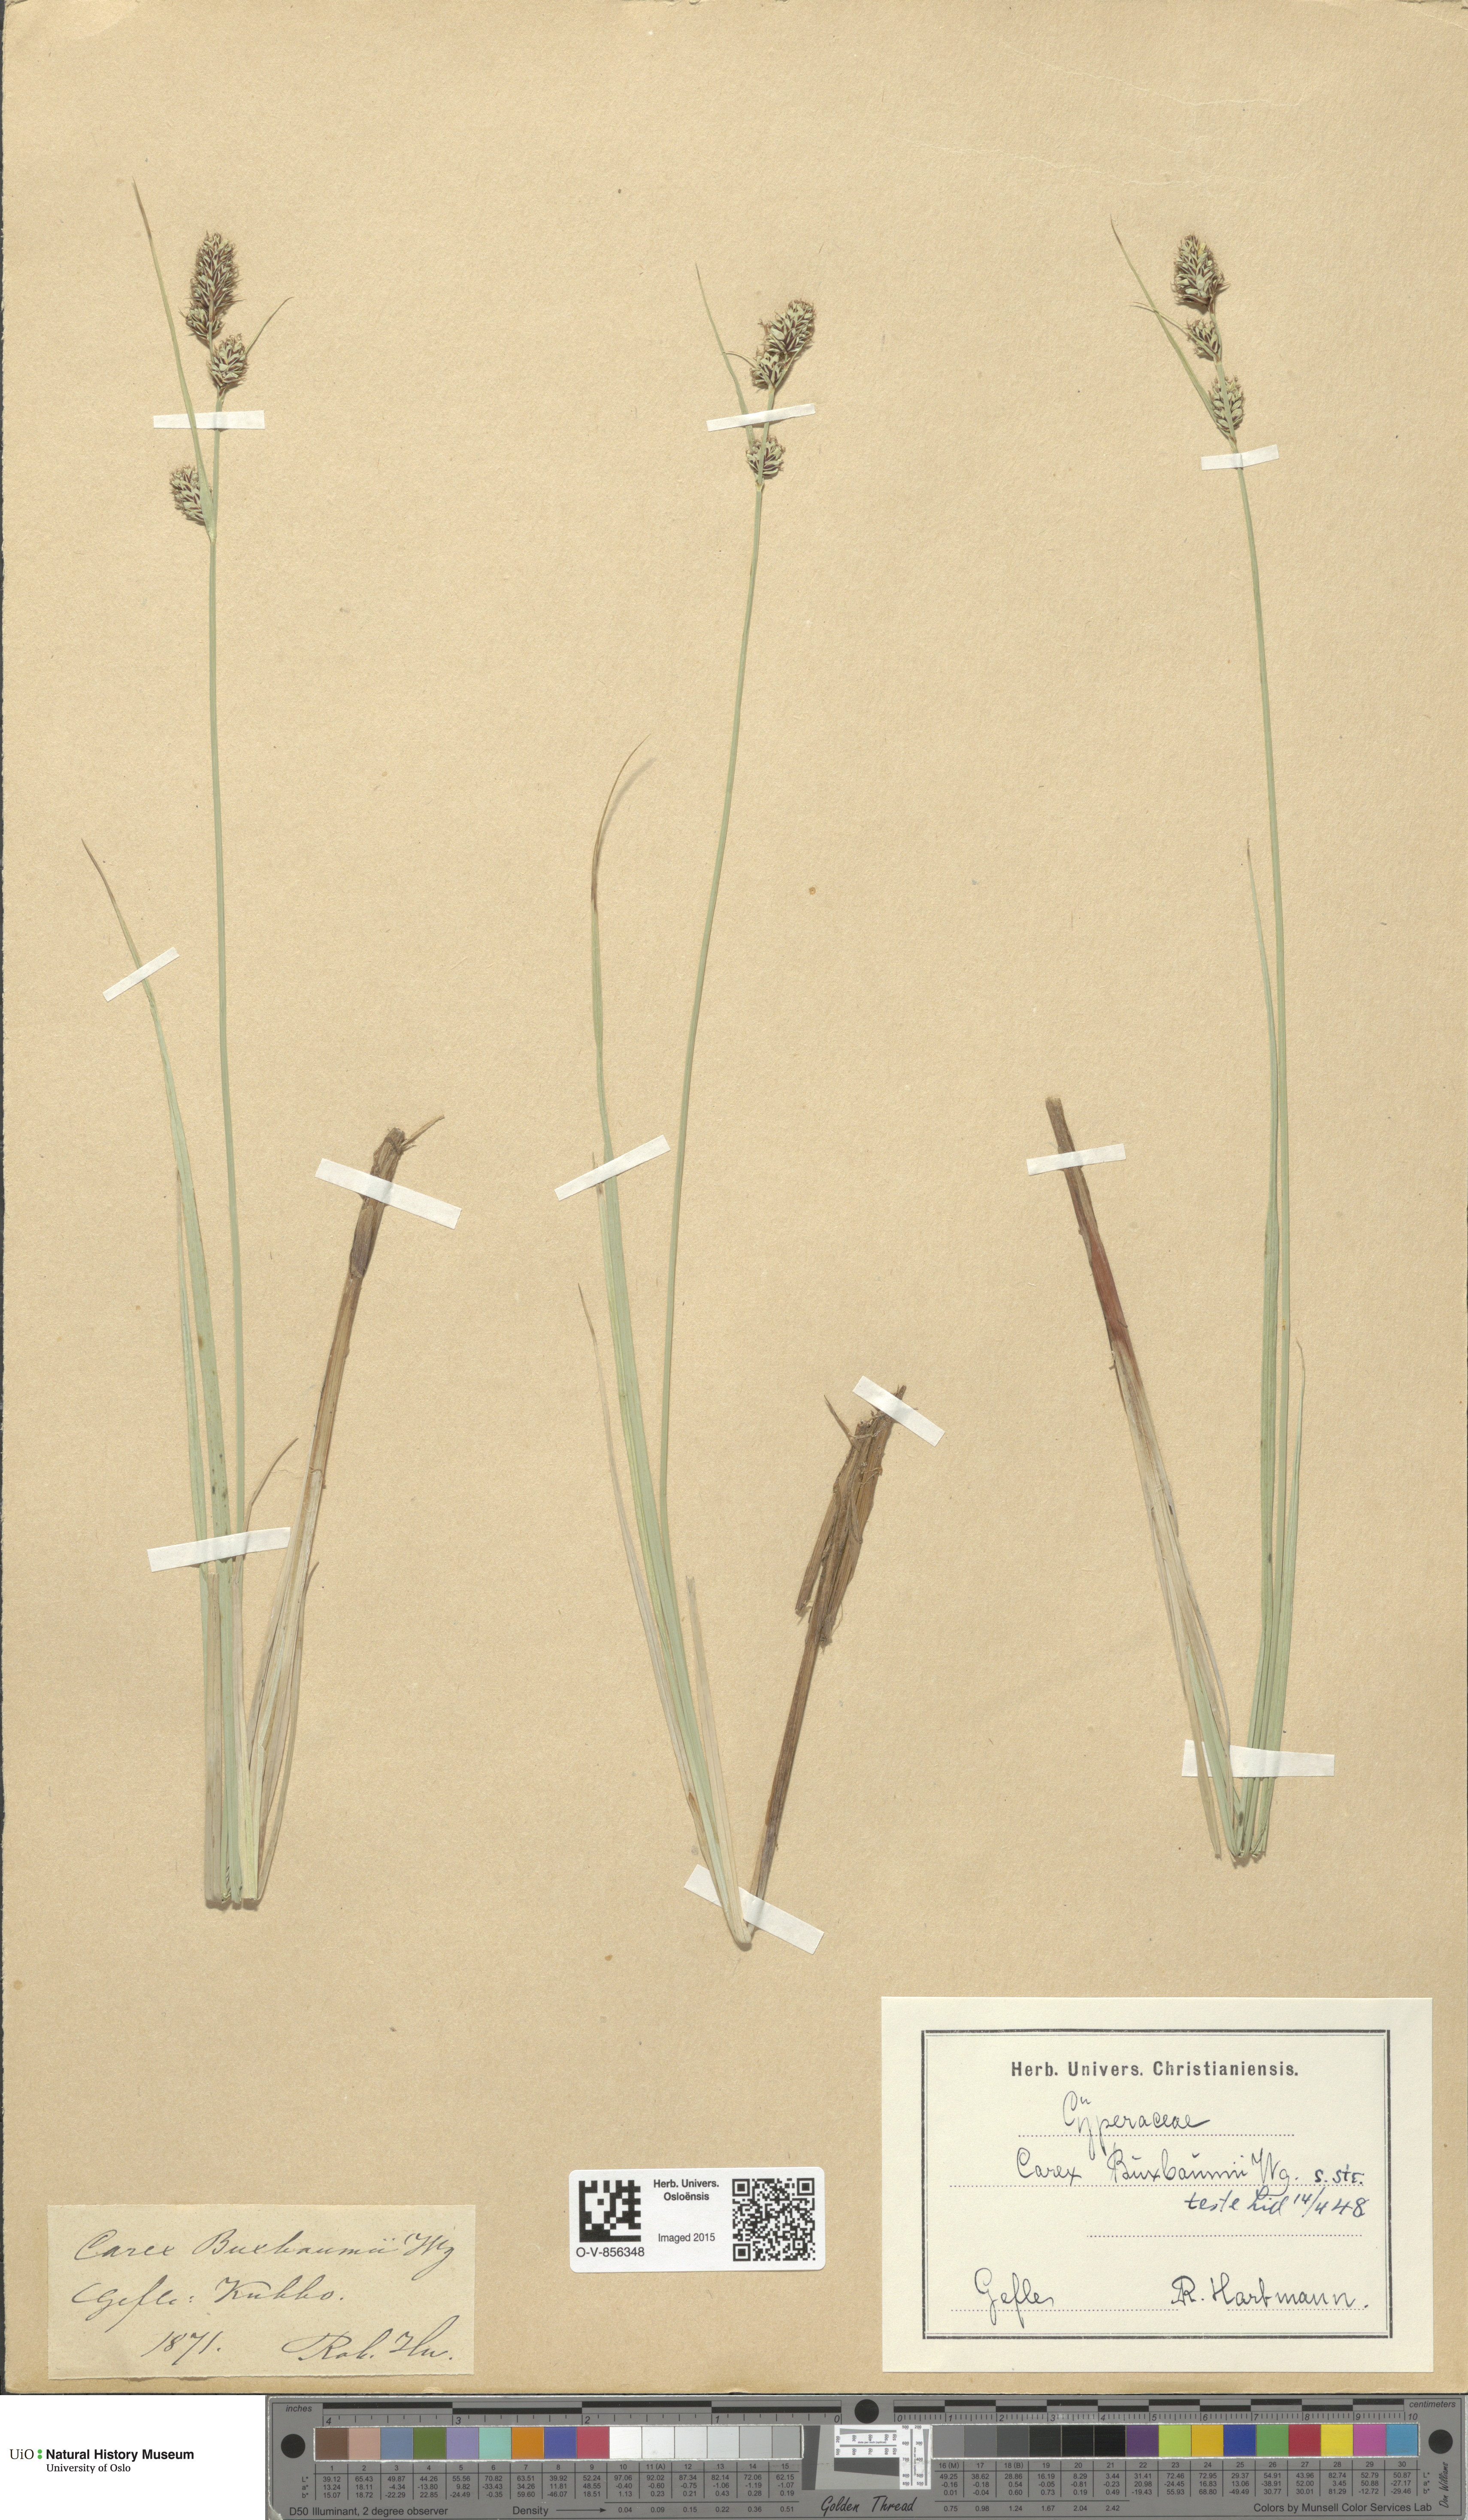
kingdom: Plantae
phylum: Tracheophyta
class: Liliopsida
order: Poales
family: Cyperaceae
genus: Carex
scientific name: Carex buxbaumii
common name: Club sedge
